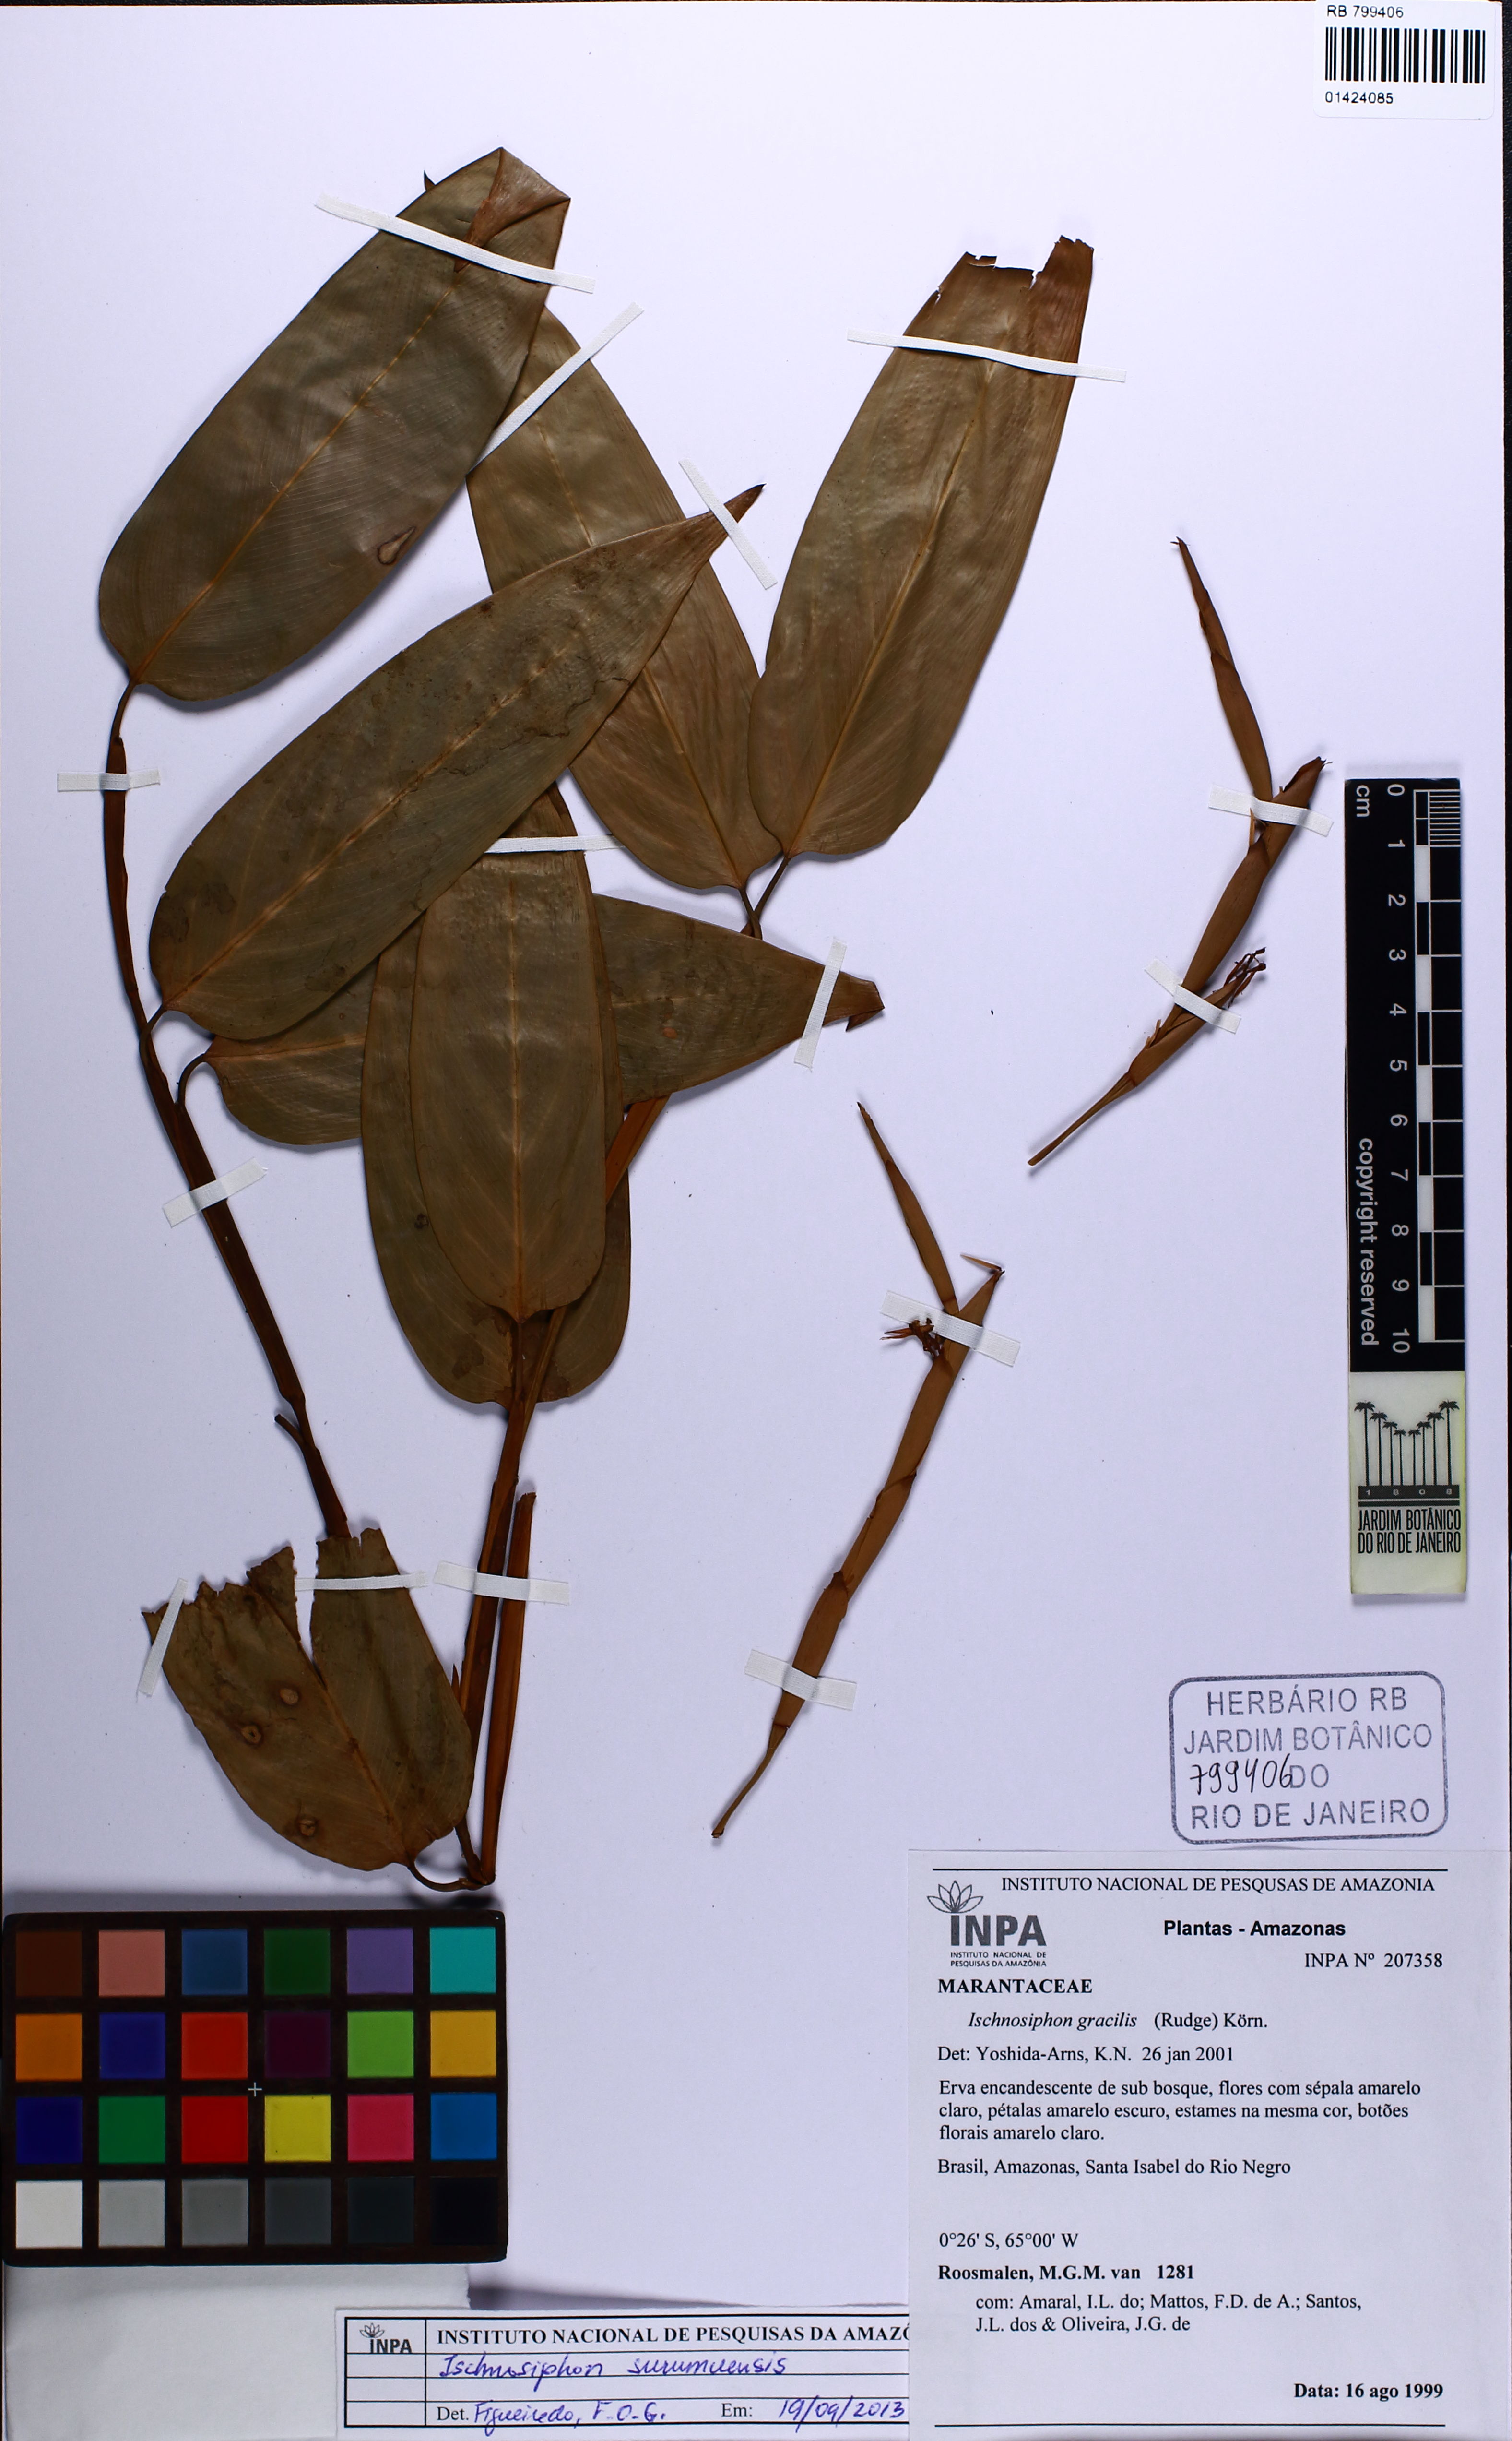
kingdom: Plantae
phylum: Tracheophyta
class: Liliopsida
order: Zingiberales
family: Marantaceae
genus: Ischnosiphon
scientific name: Ischnosiphon surumuensis
